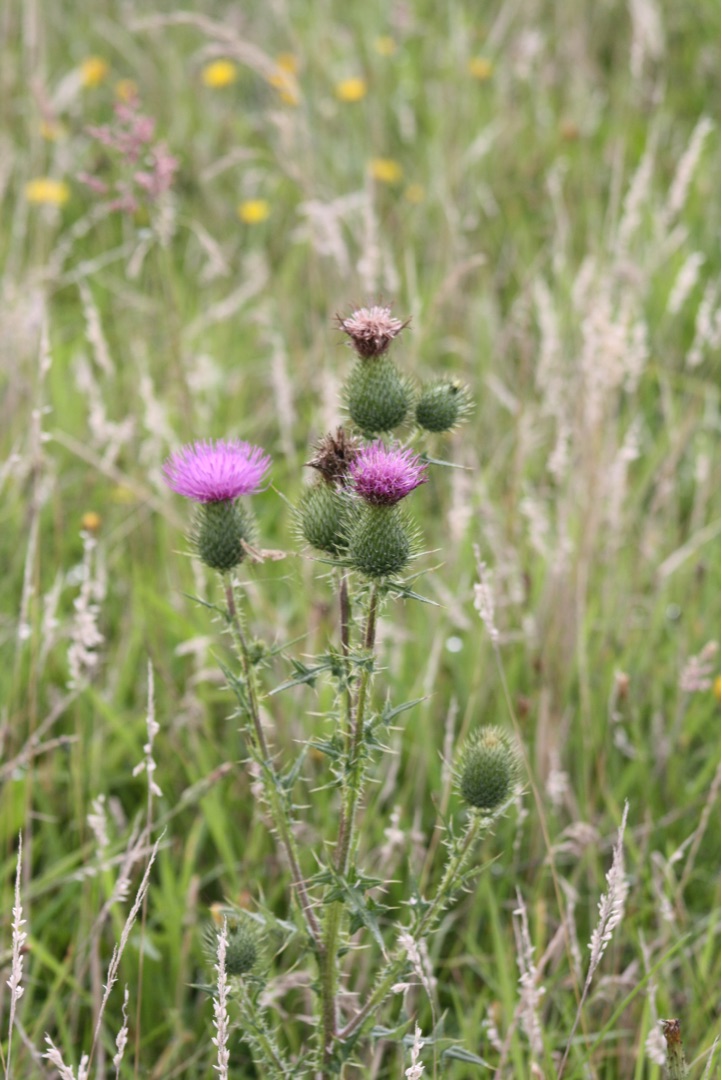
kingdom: Plantae
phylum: Tracheophyta
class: Magnoliopsida
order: Asterales
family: Asteraceae
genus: Cirsium
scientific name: Cirsium vulgare
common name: Horse-tidsel
